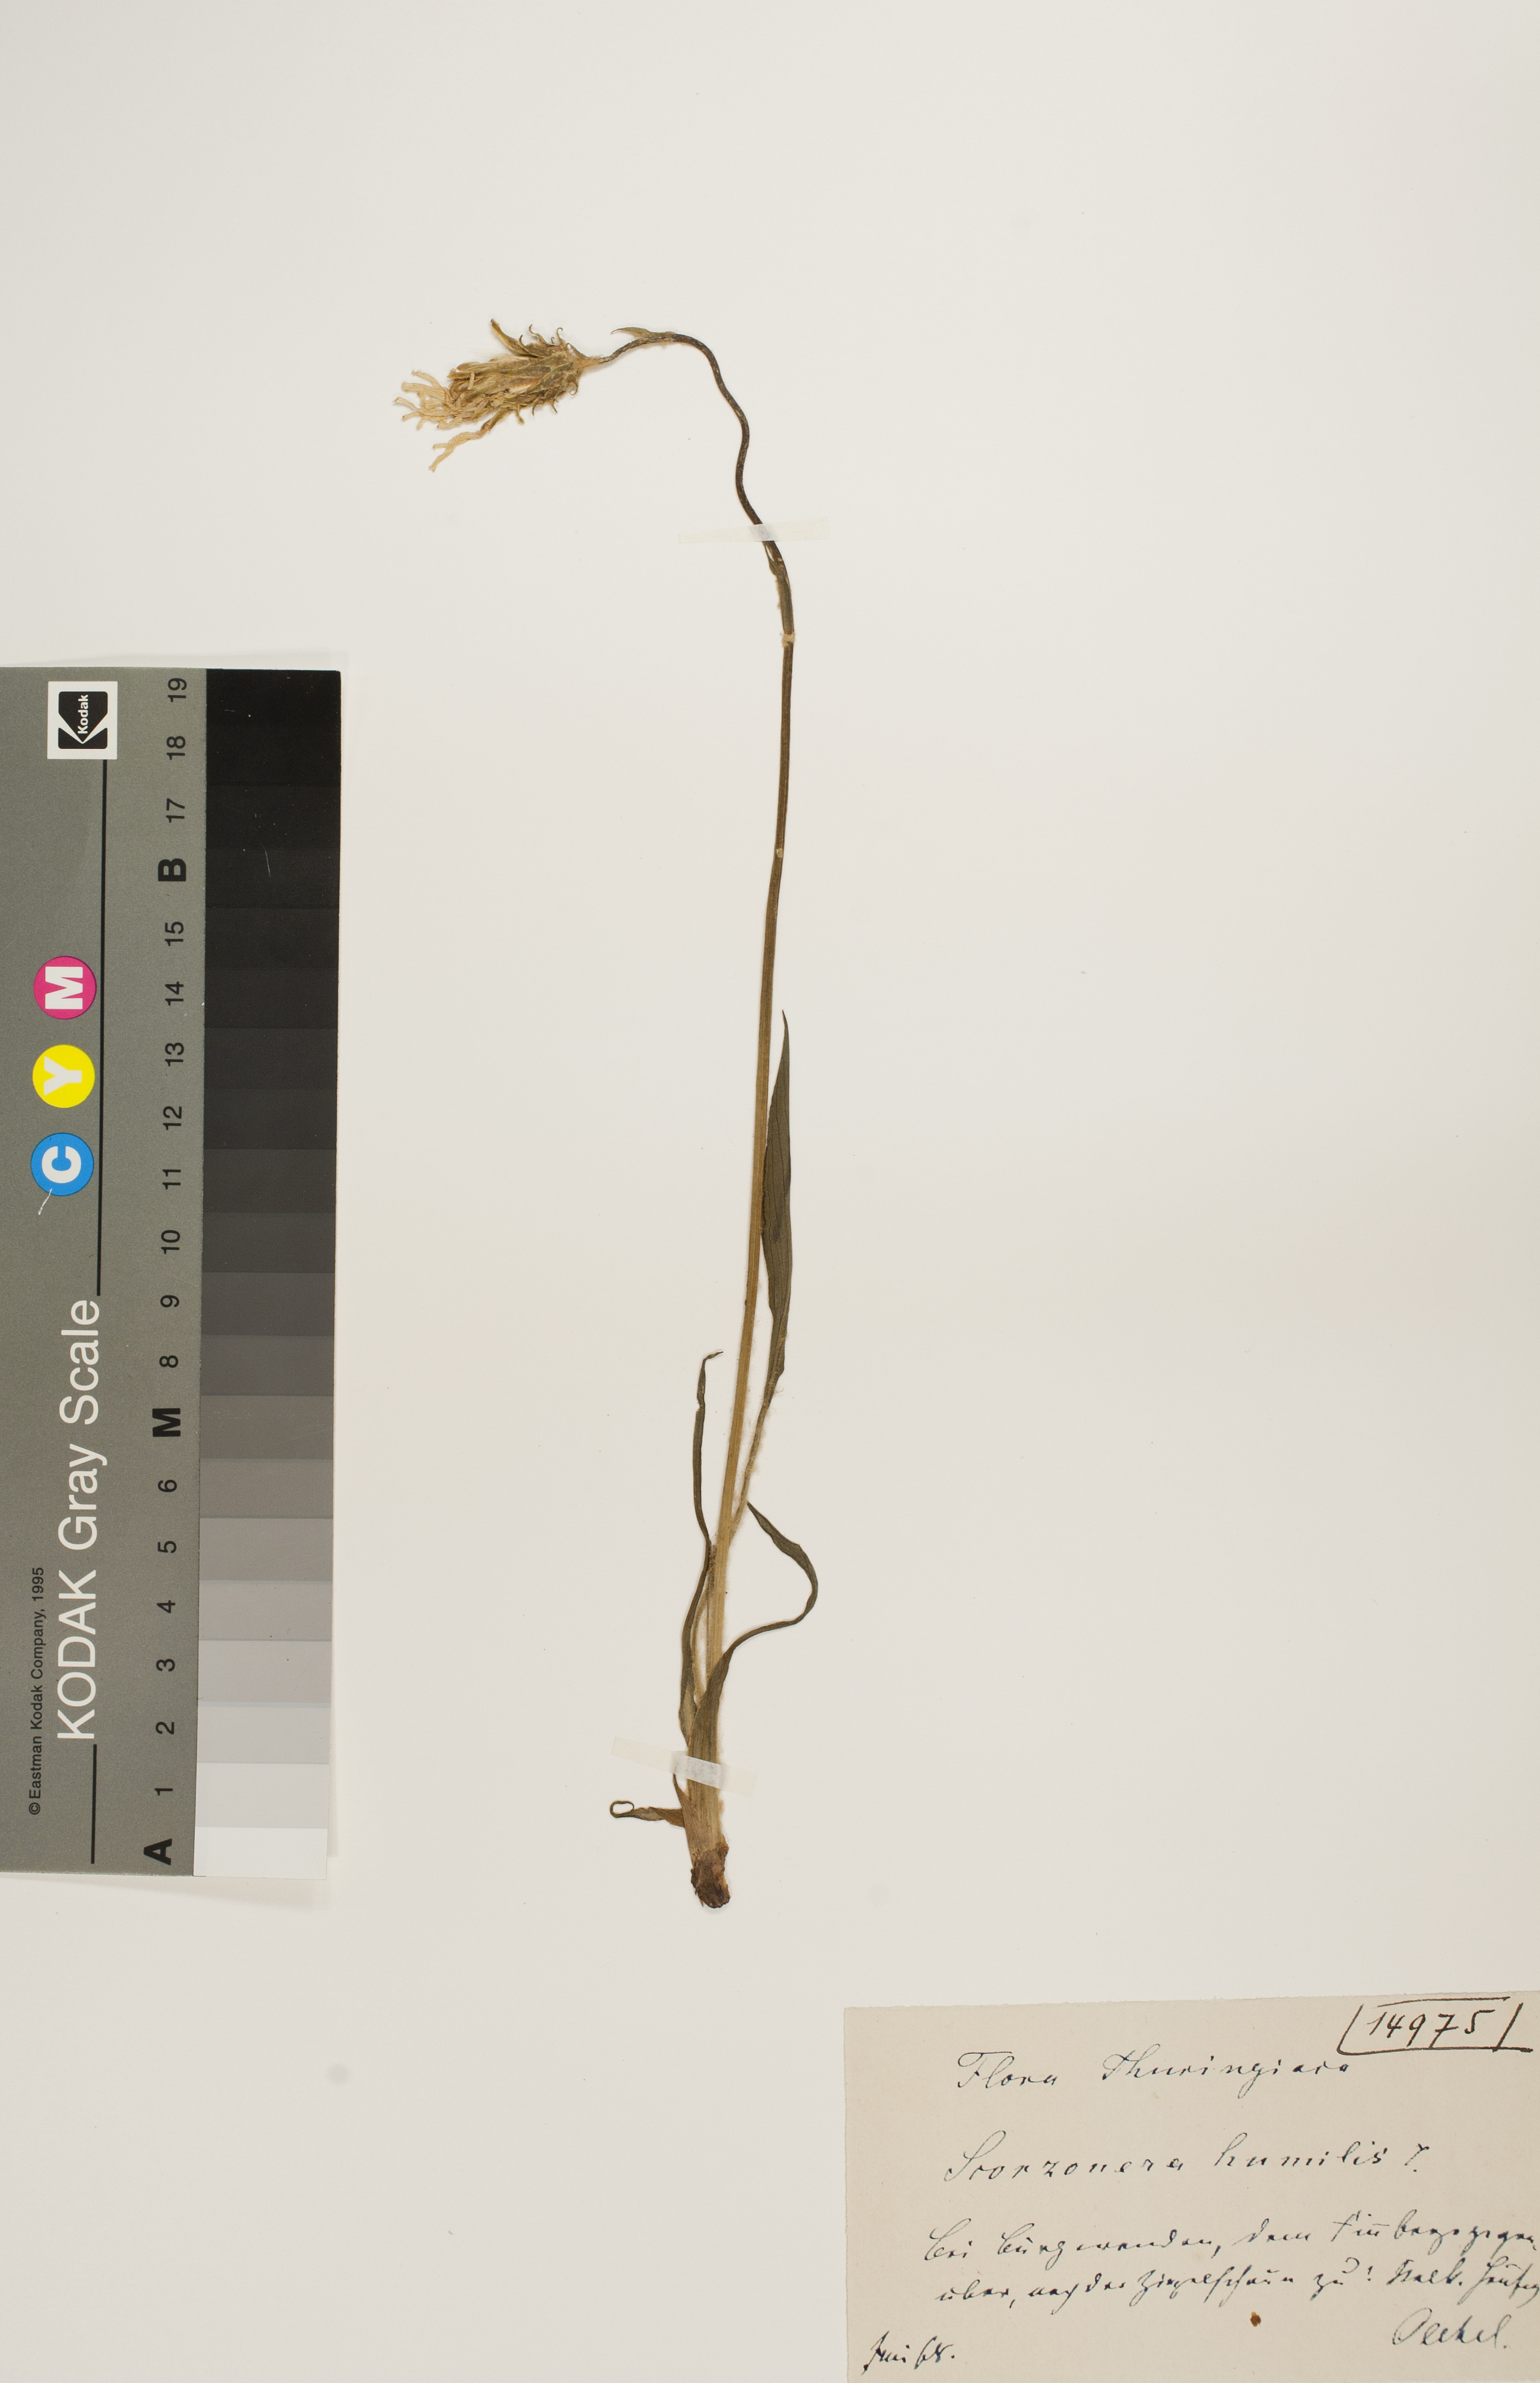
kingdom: Plantae
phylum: Tracheophyta
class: Magnoliopsida
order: Asterales
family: Asteraceae
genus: Scorzonera
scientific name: Scorzonera humilis
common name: Viper's-grass
